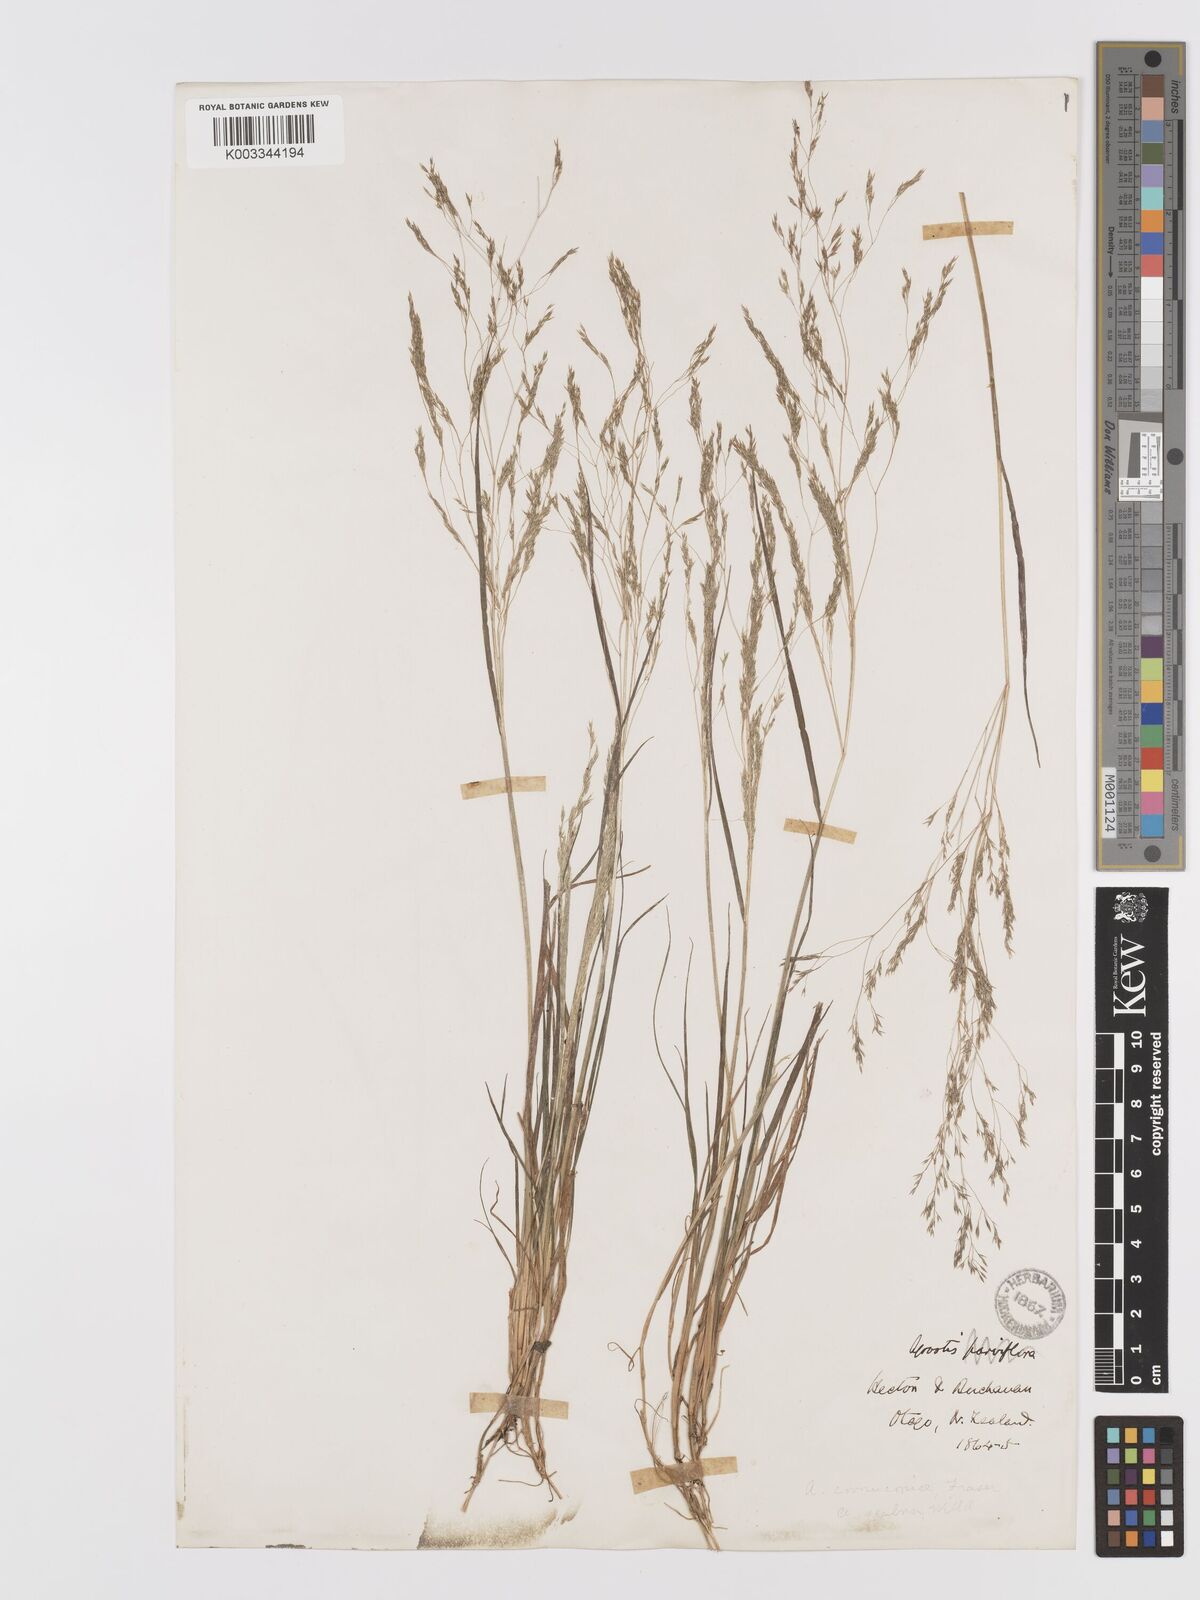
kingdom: Plantae
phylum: Tracheophyta
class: Liliopsida
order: Poales
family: Poaceae
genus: Agrostis
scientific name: Agrostis
